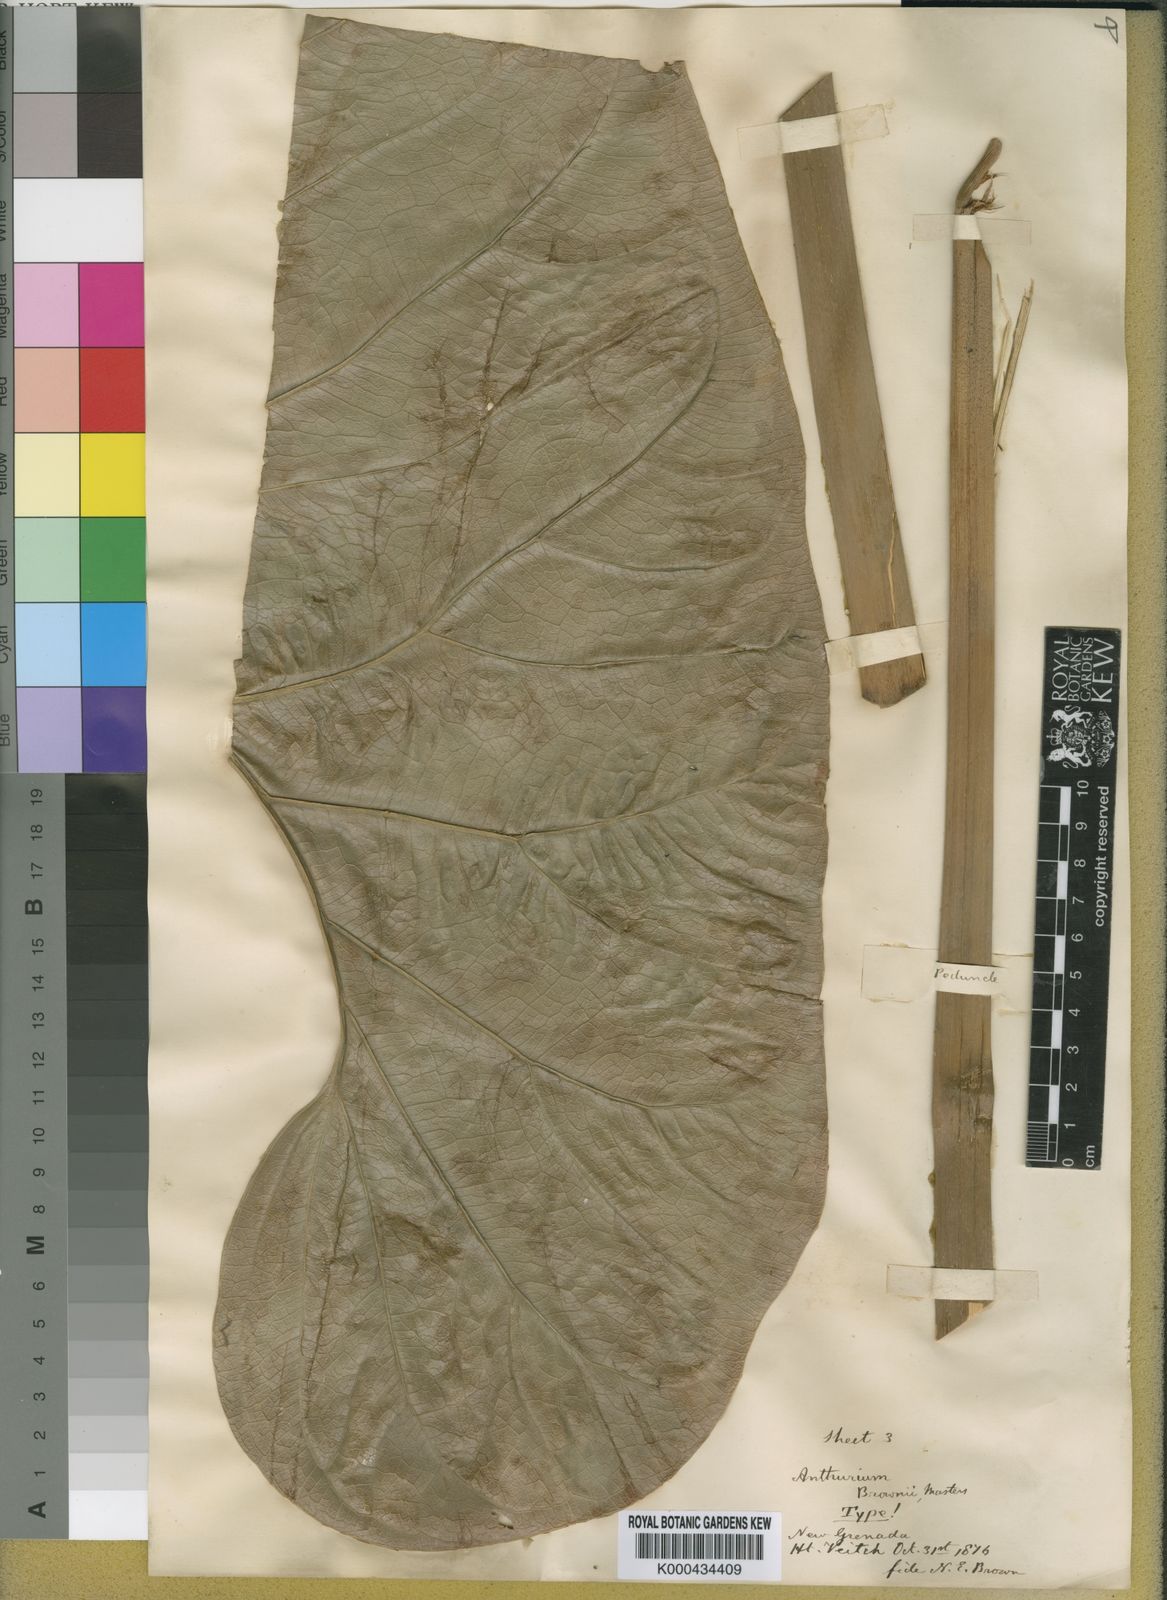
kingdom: Plantae
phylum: Tracheophyta
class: Liliopsida
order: Alismatales
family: Araceae
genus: Anthurium
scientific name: Anthurium brownii
